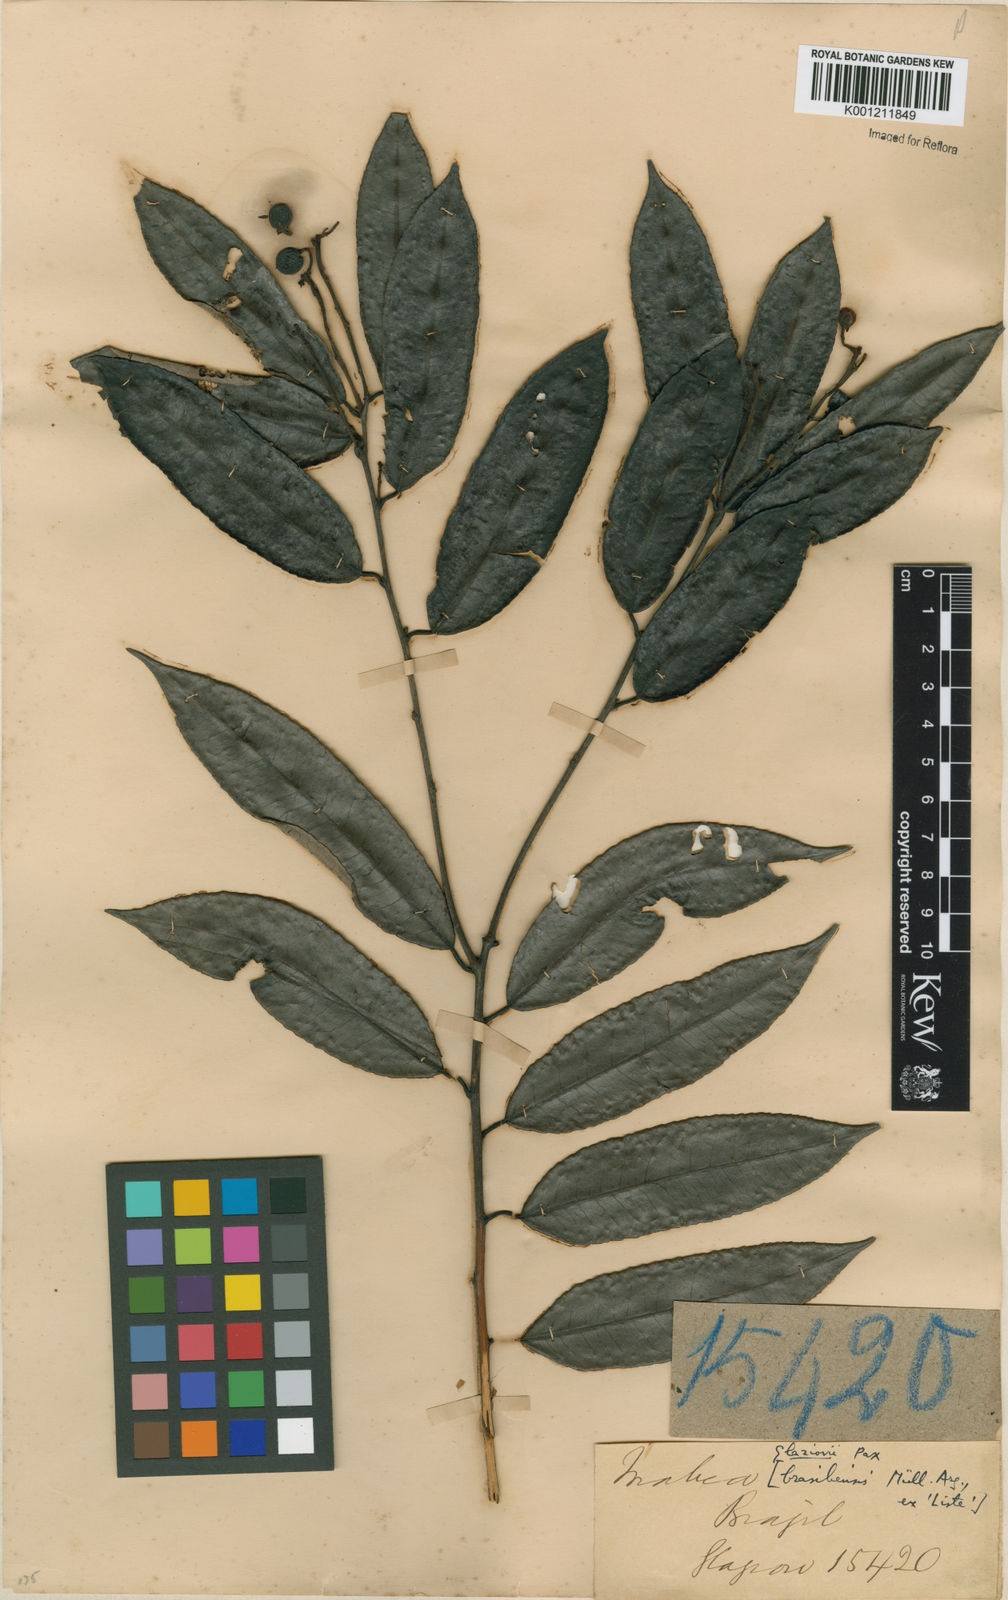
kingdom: Plantae
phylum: Tracheophyta
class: Magnoliopsida
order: Malpighiales
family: Euphorbiaceae
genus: Mabea
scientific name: Mabea glaziovii
